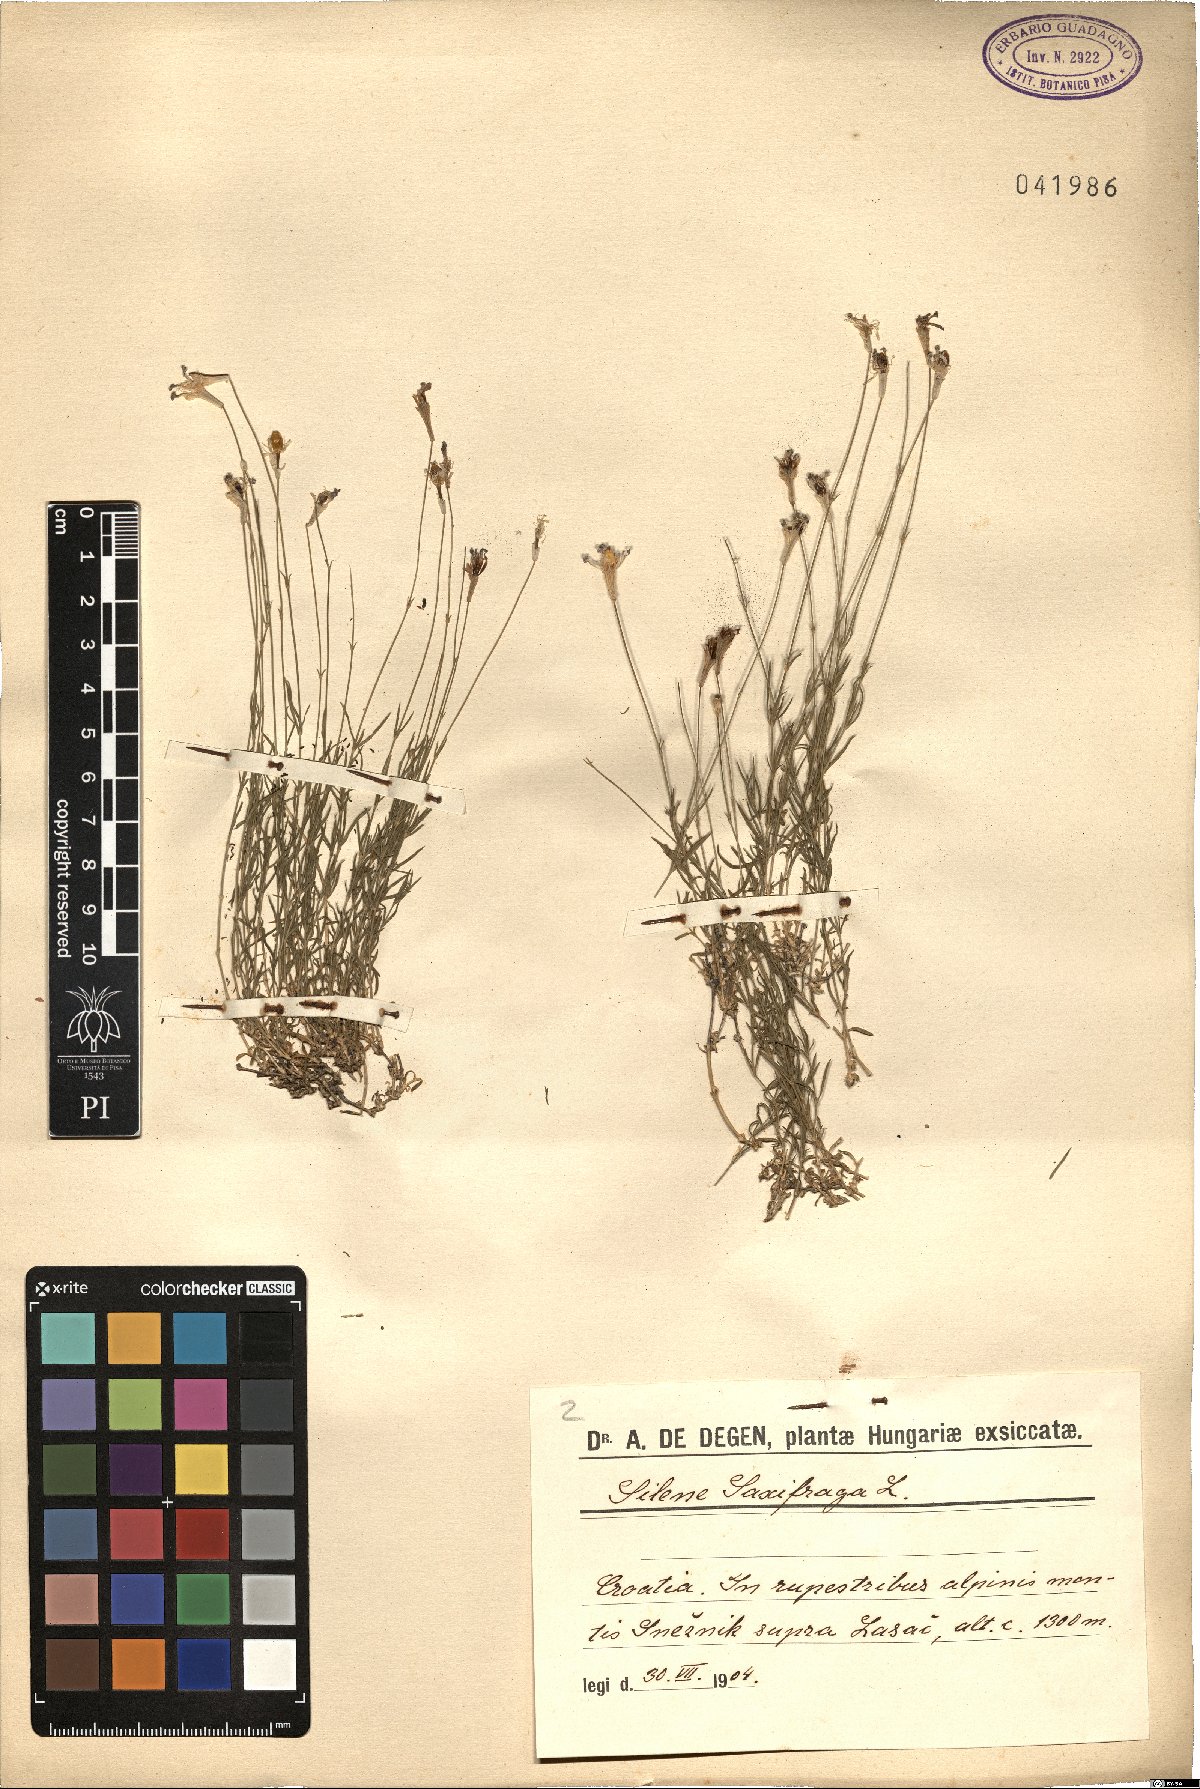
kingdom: Plantae
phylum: Tracheophyta
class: Magnoliopsida
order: Caryophyllales
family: Caryophyllaceae
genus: Silene
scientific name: Silene saxifraga
